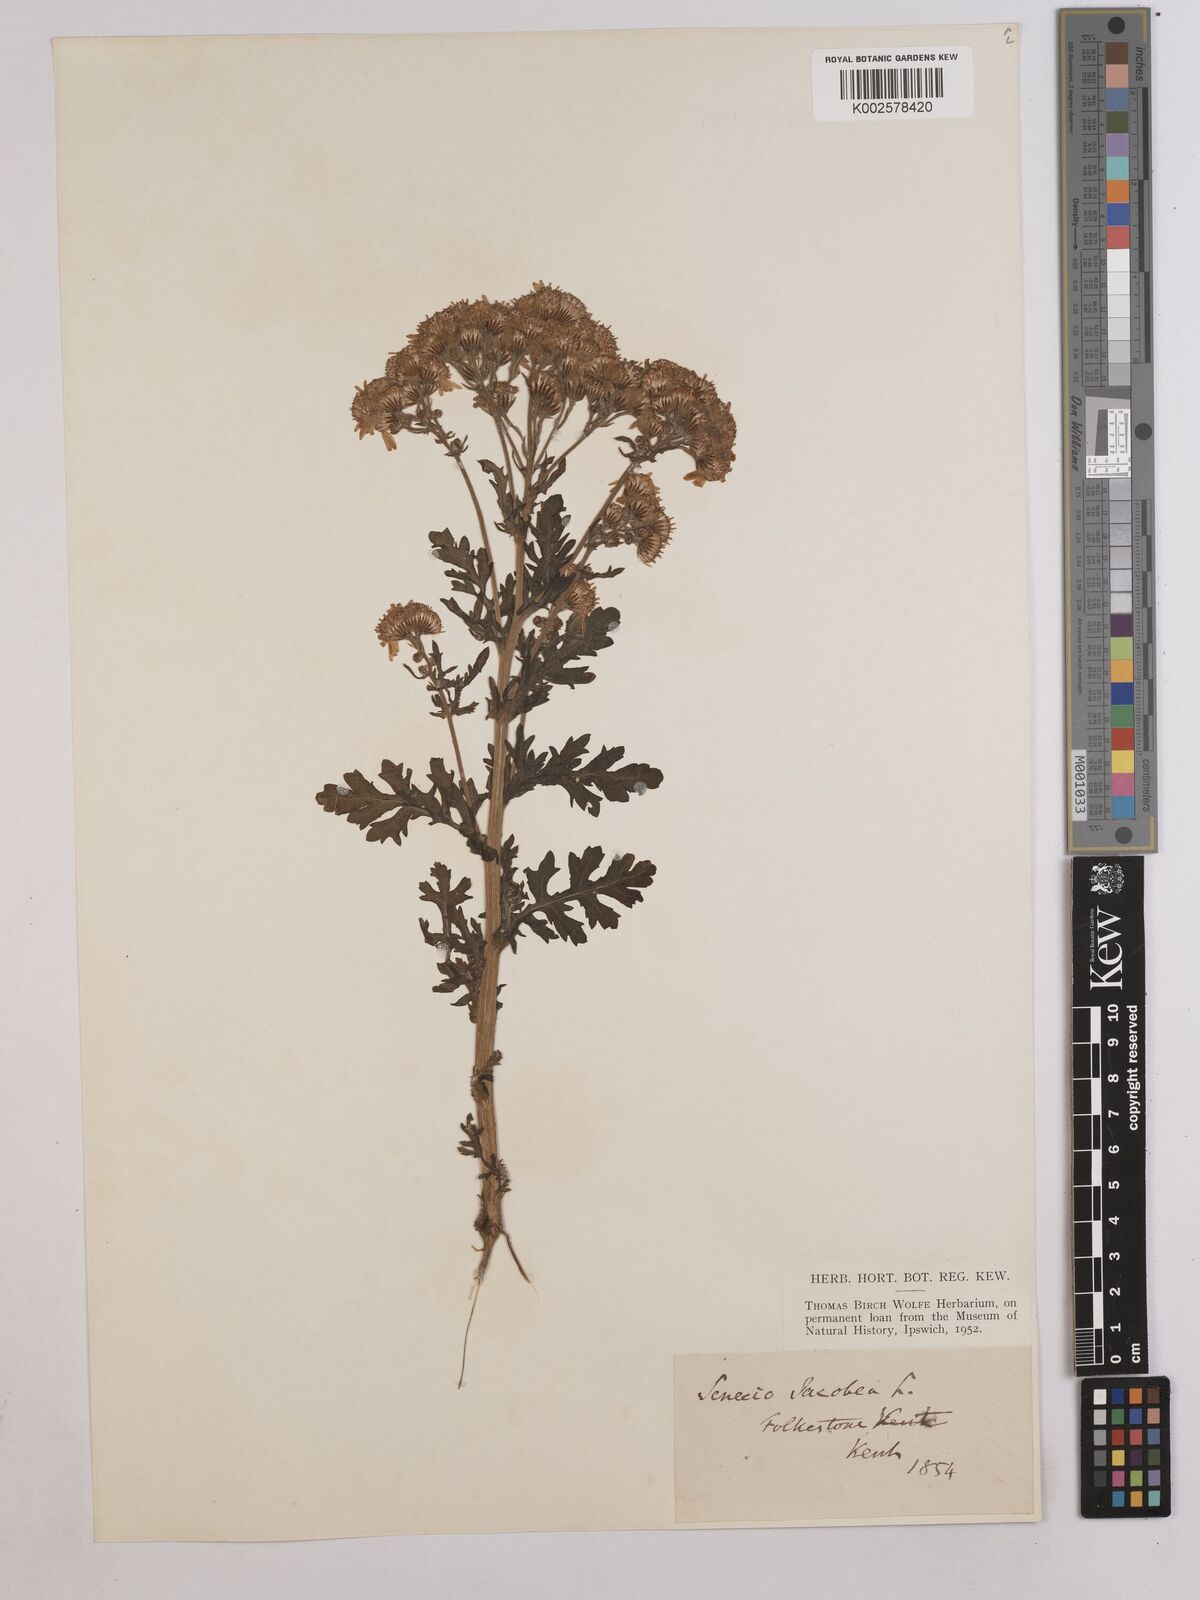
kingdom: Plantae
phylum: Tracheophyta
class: Magnoliopsida
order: Asterales
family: Asteraceae
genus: Jacobaea
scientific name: Jacobaea vulgaris
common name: Stinking willie
